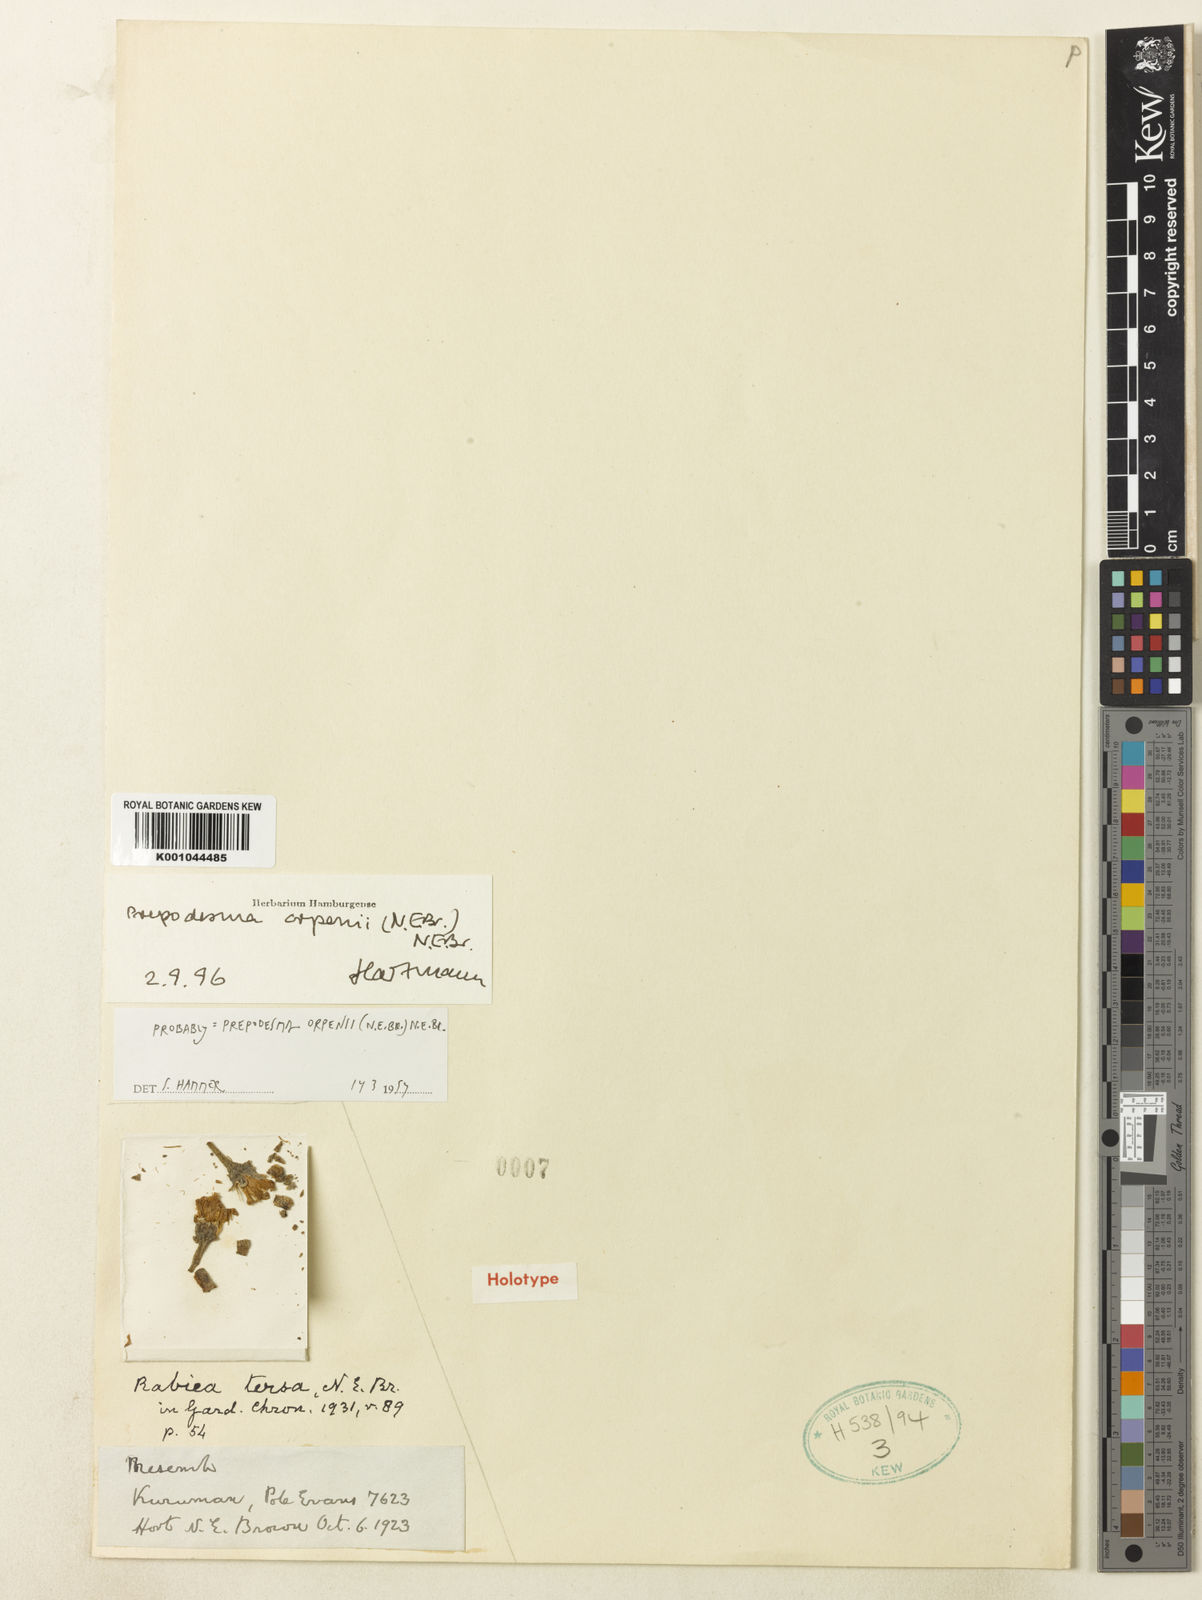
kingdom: Plantae
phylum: Tracheophyta
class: Magnoliopsida
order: Caryophyllales
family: Aizoaceae
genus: Prepodesma
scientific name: Prepodesma orpenii
